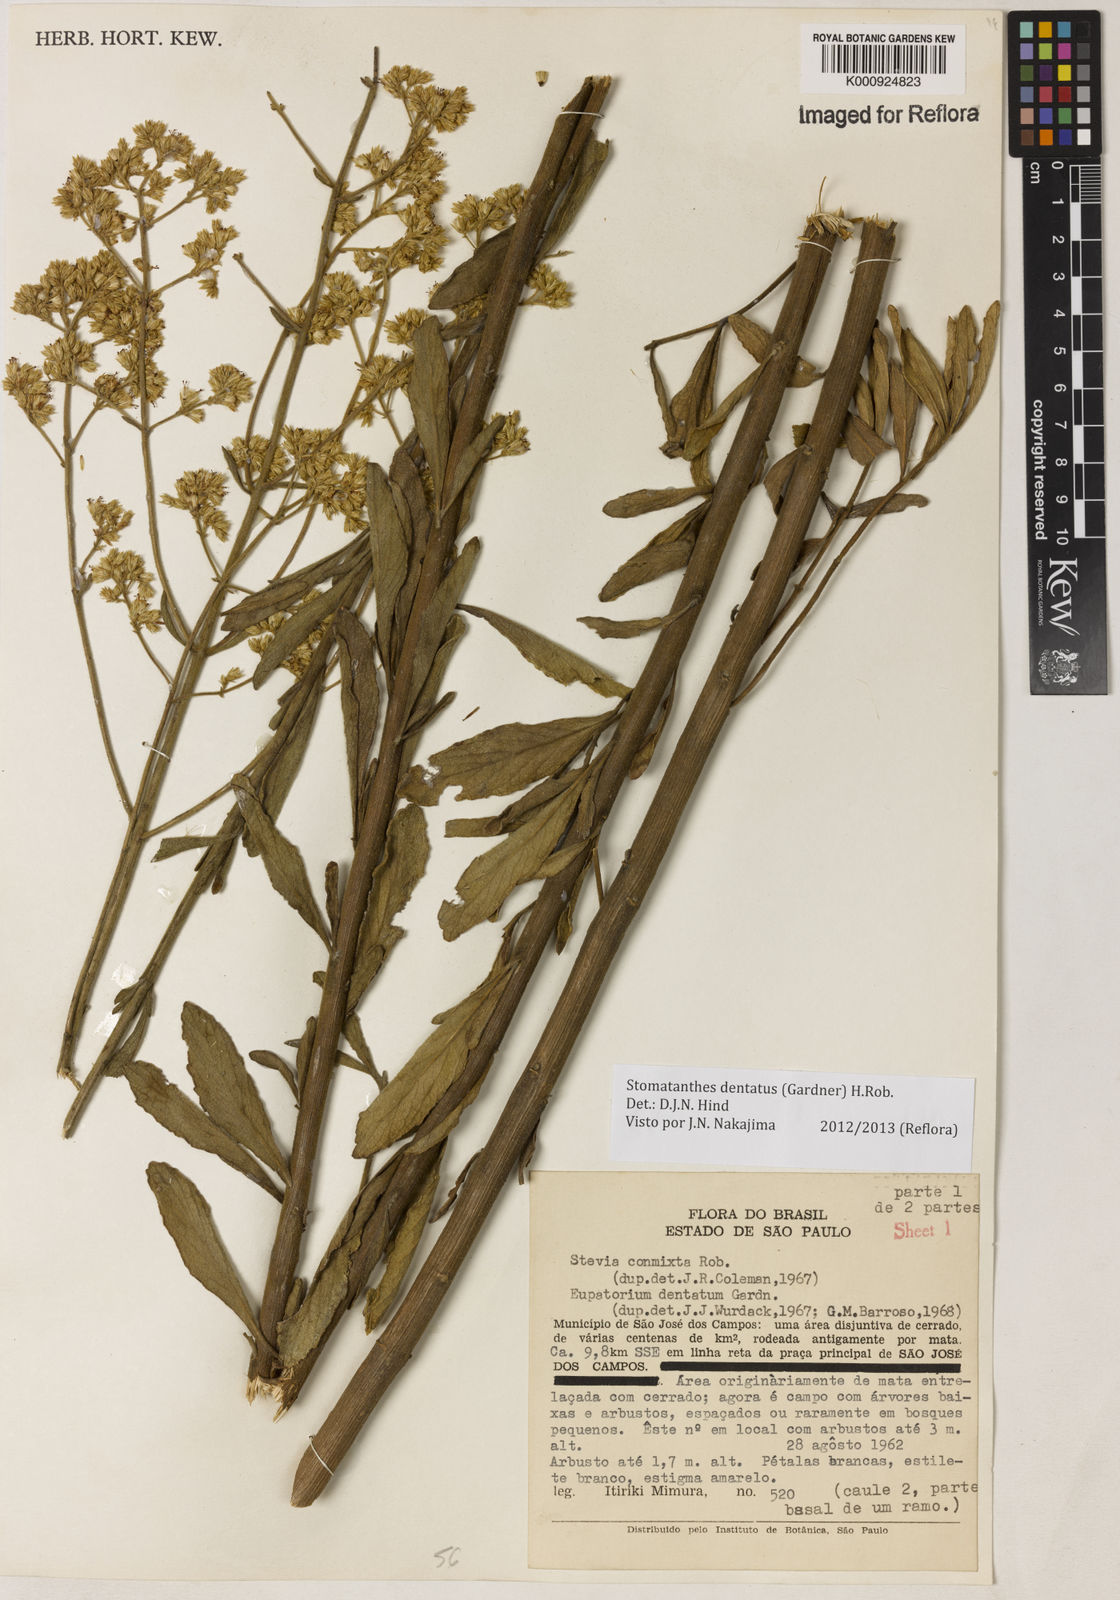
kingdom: Plantae
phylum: Tracheophyta
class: Magnoliopsida
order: Asterales
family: Asteraceae
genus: Stomatanthes
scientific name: Stomatanthes dentatus
